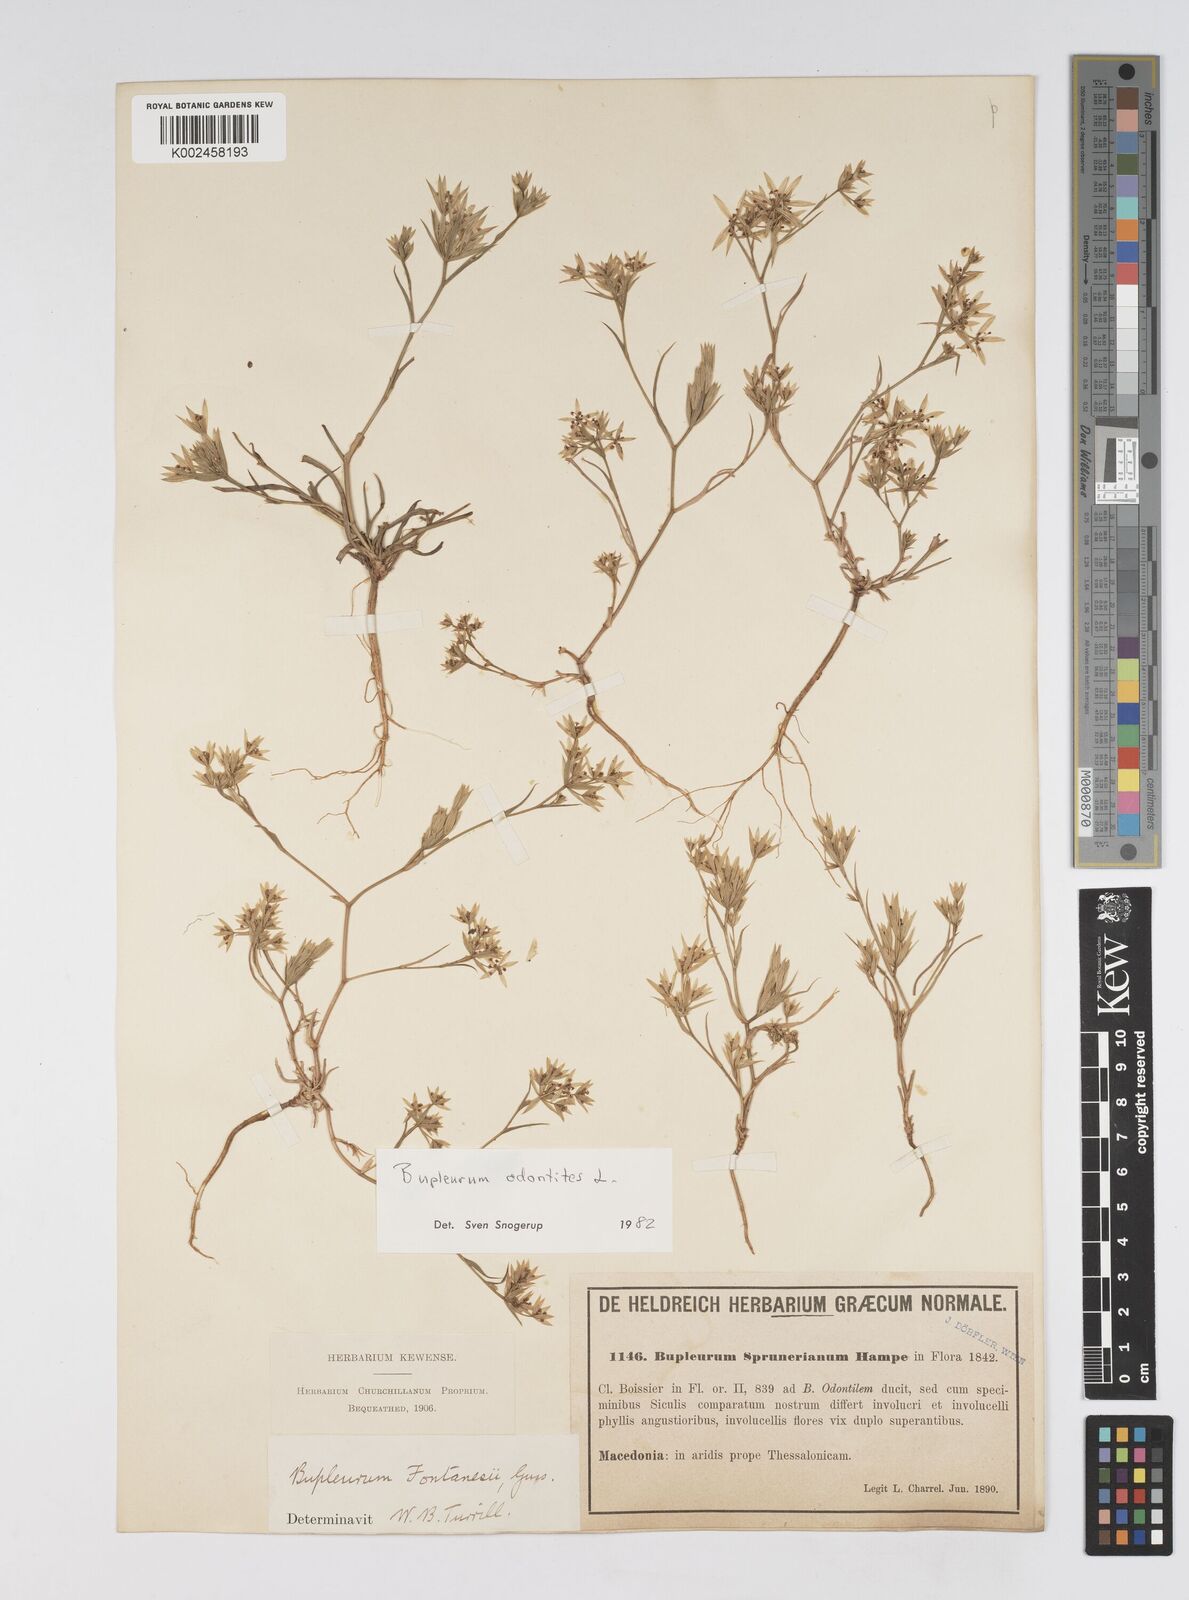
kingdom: Plantae
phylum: Tracheophyta
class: Magnoliopsida
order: Apiales
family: Apiaceae
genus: Bupleurum
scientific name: Bupleurum odontites
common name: Narrowleaf thorow wax
